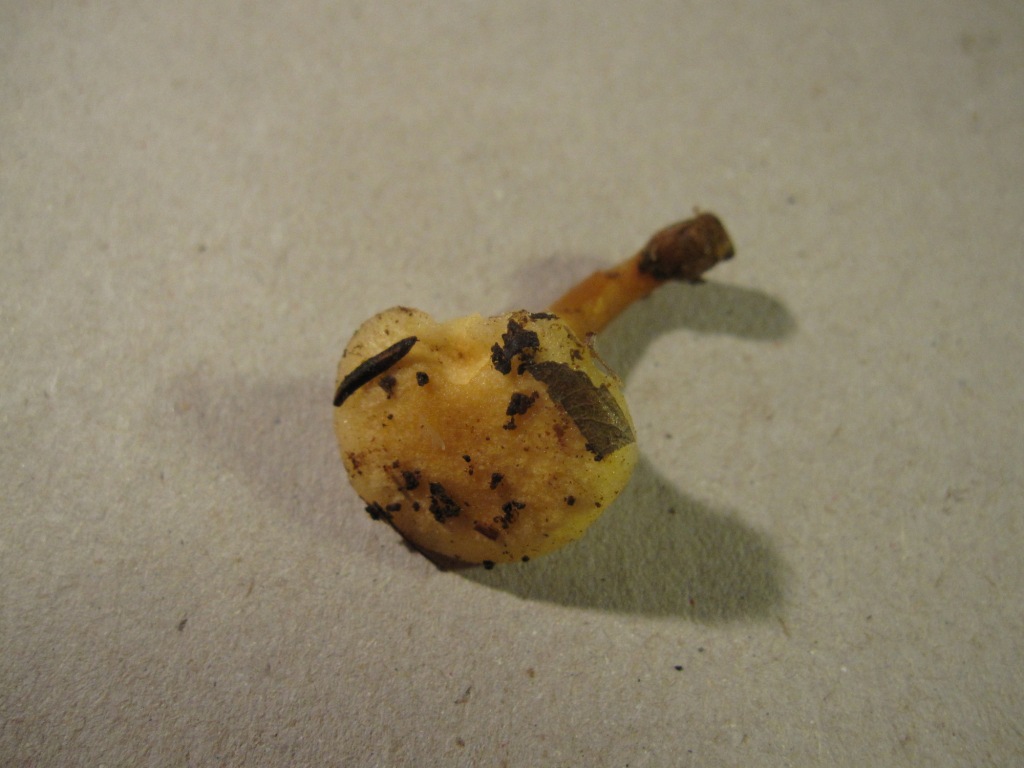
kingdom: Fungi
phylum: Basidiomycota
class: Agaricomycetes
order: Boletales
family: Hygrophoropsidaceae
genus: Hygrophoropsis
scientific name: Hygrophoropsis pallida
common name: bleg orangekantarel
